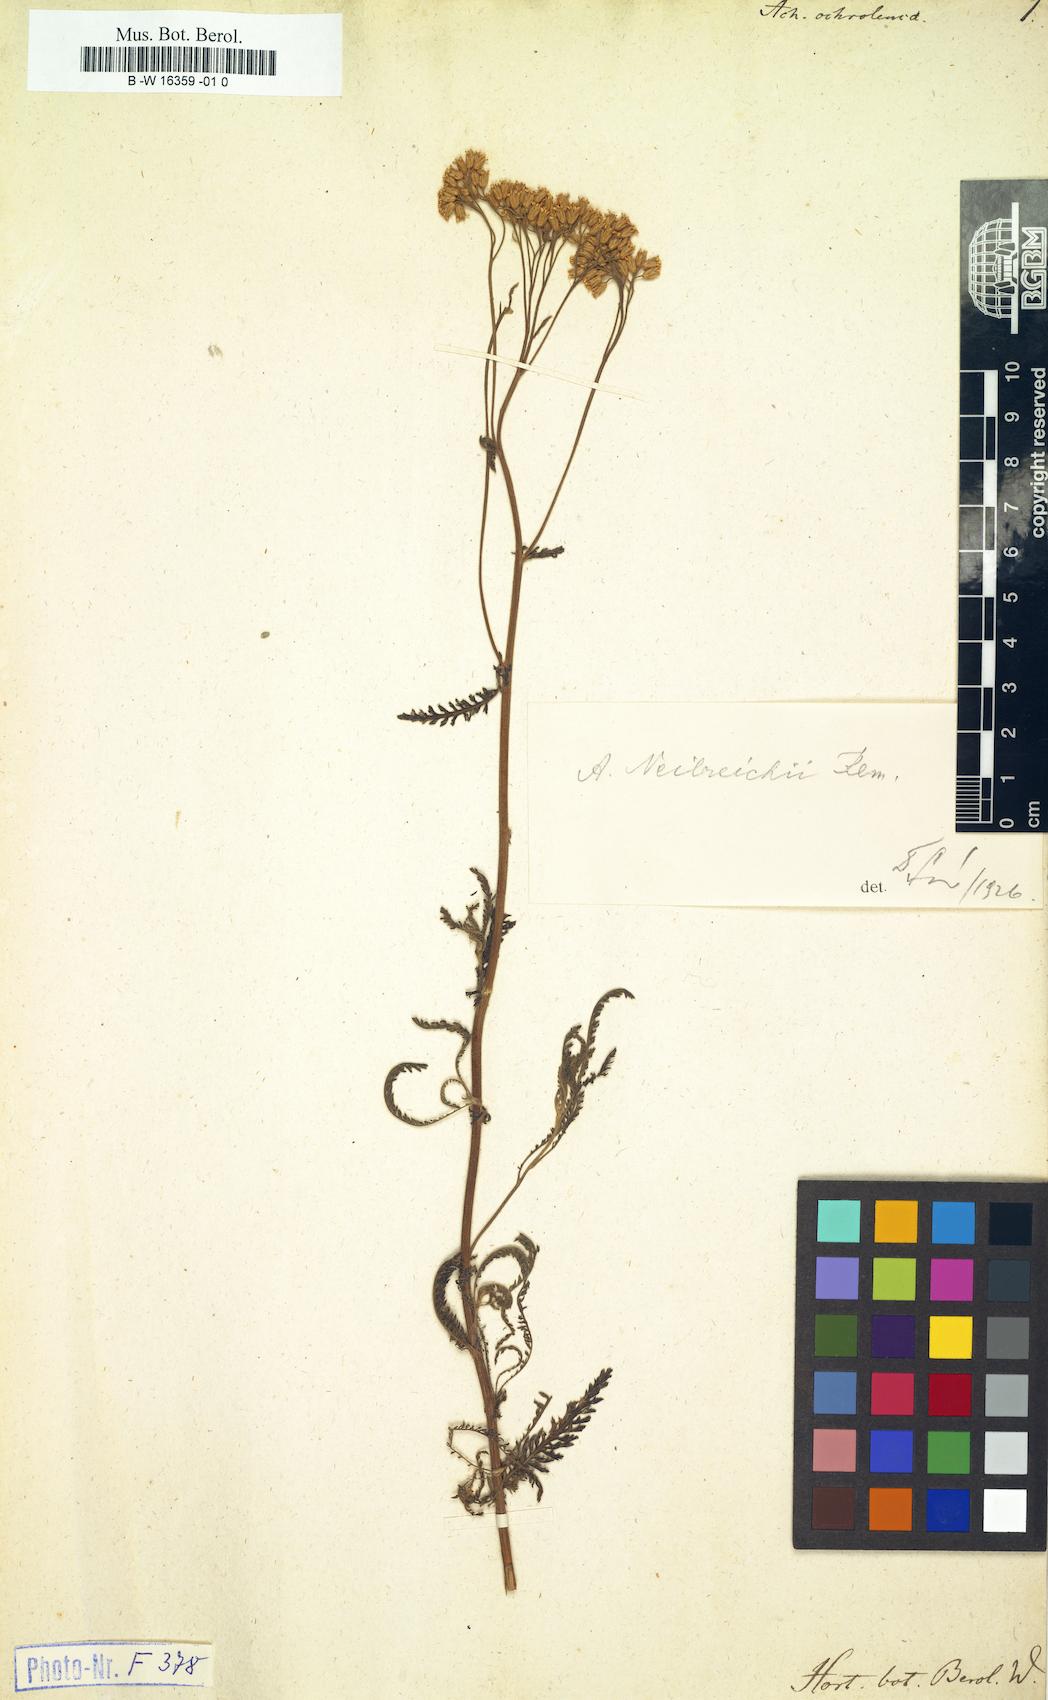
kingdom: Plantae
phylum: Tracheophyta
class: Magnoliopsida
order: Asterales
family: Asteraceae
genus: Achillea
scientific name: Achillea ochroleuca
